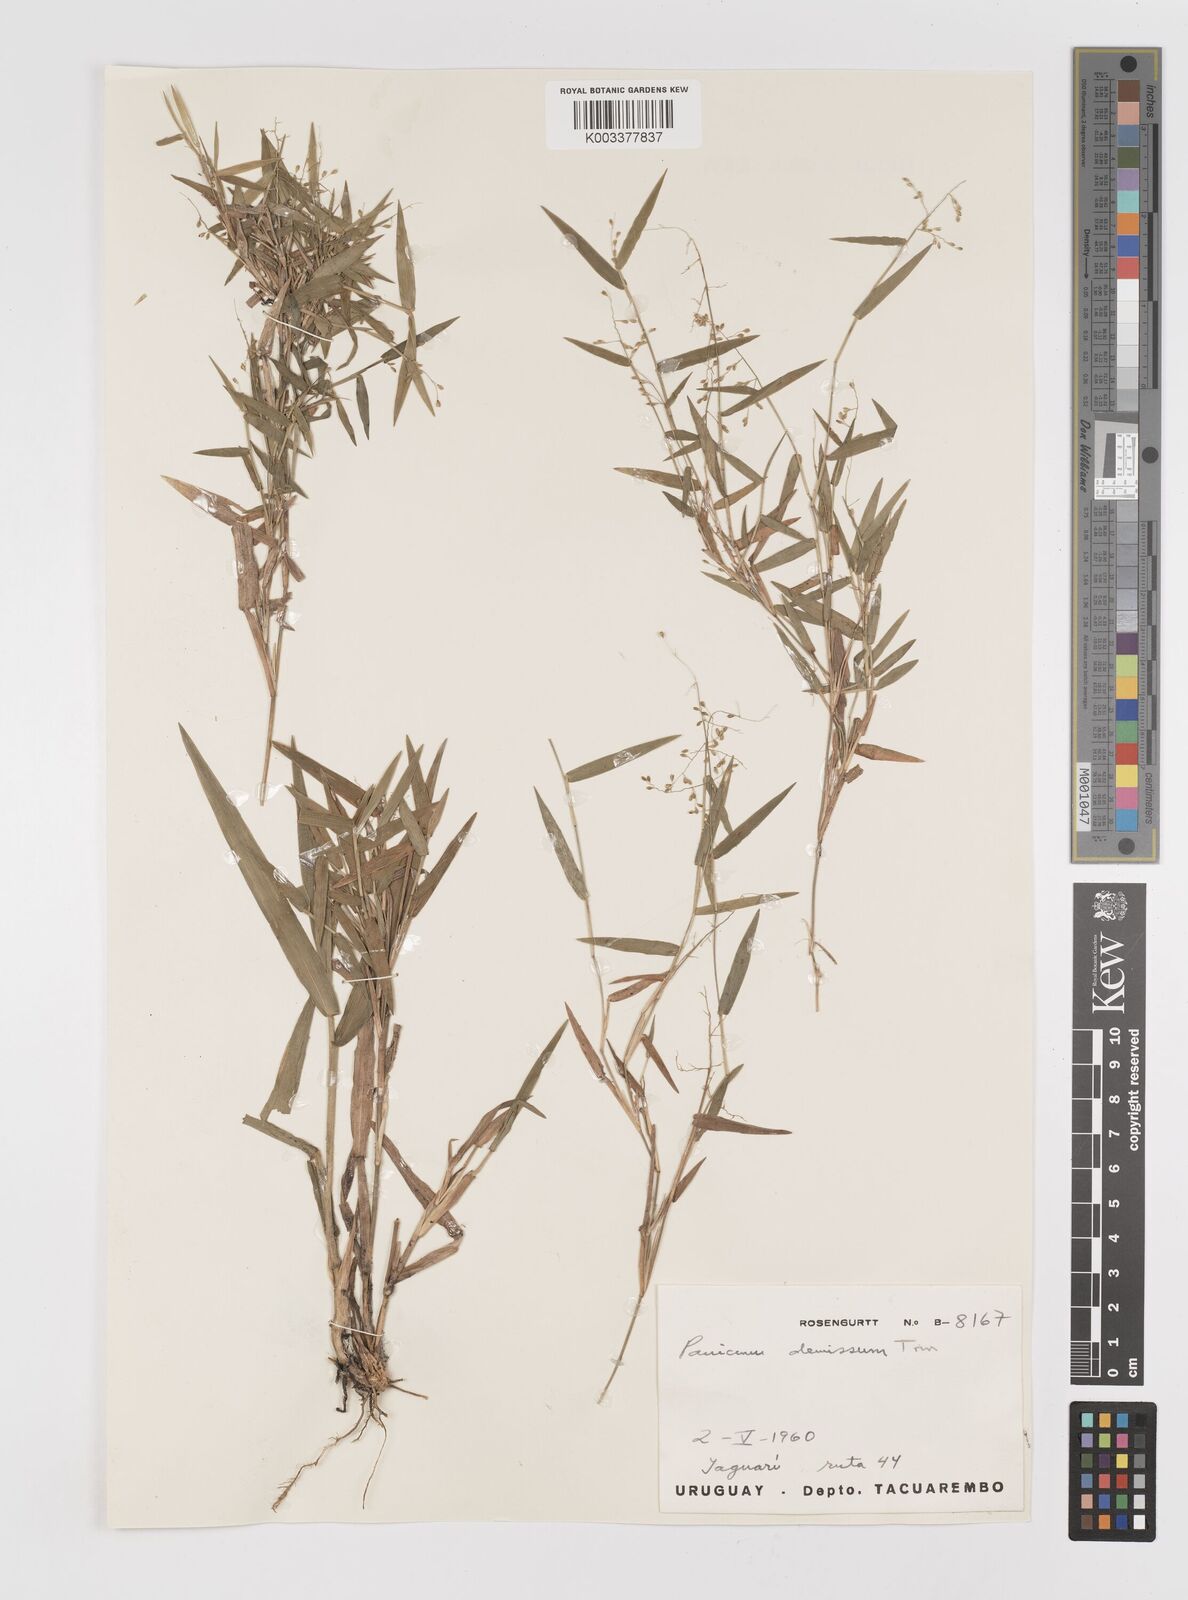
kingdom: Plantae
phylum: Tracheophyta
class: Liliopsida
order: Poales
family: Poaceae
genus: Dichanthelium
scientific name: Dichanthelium sabulorum
